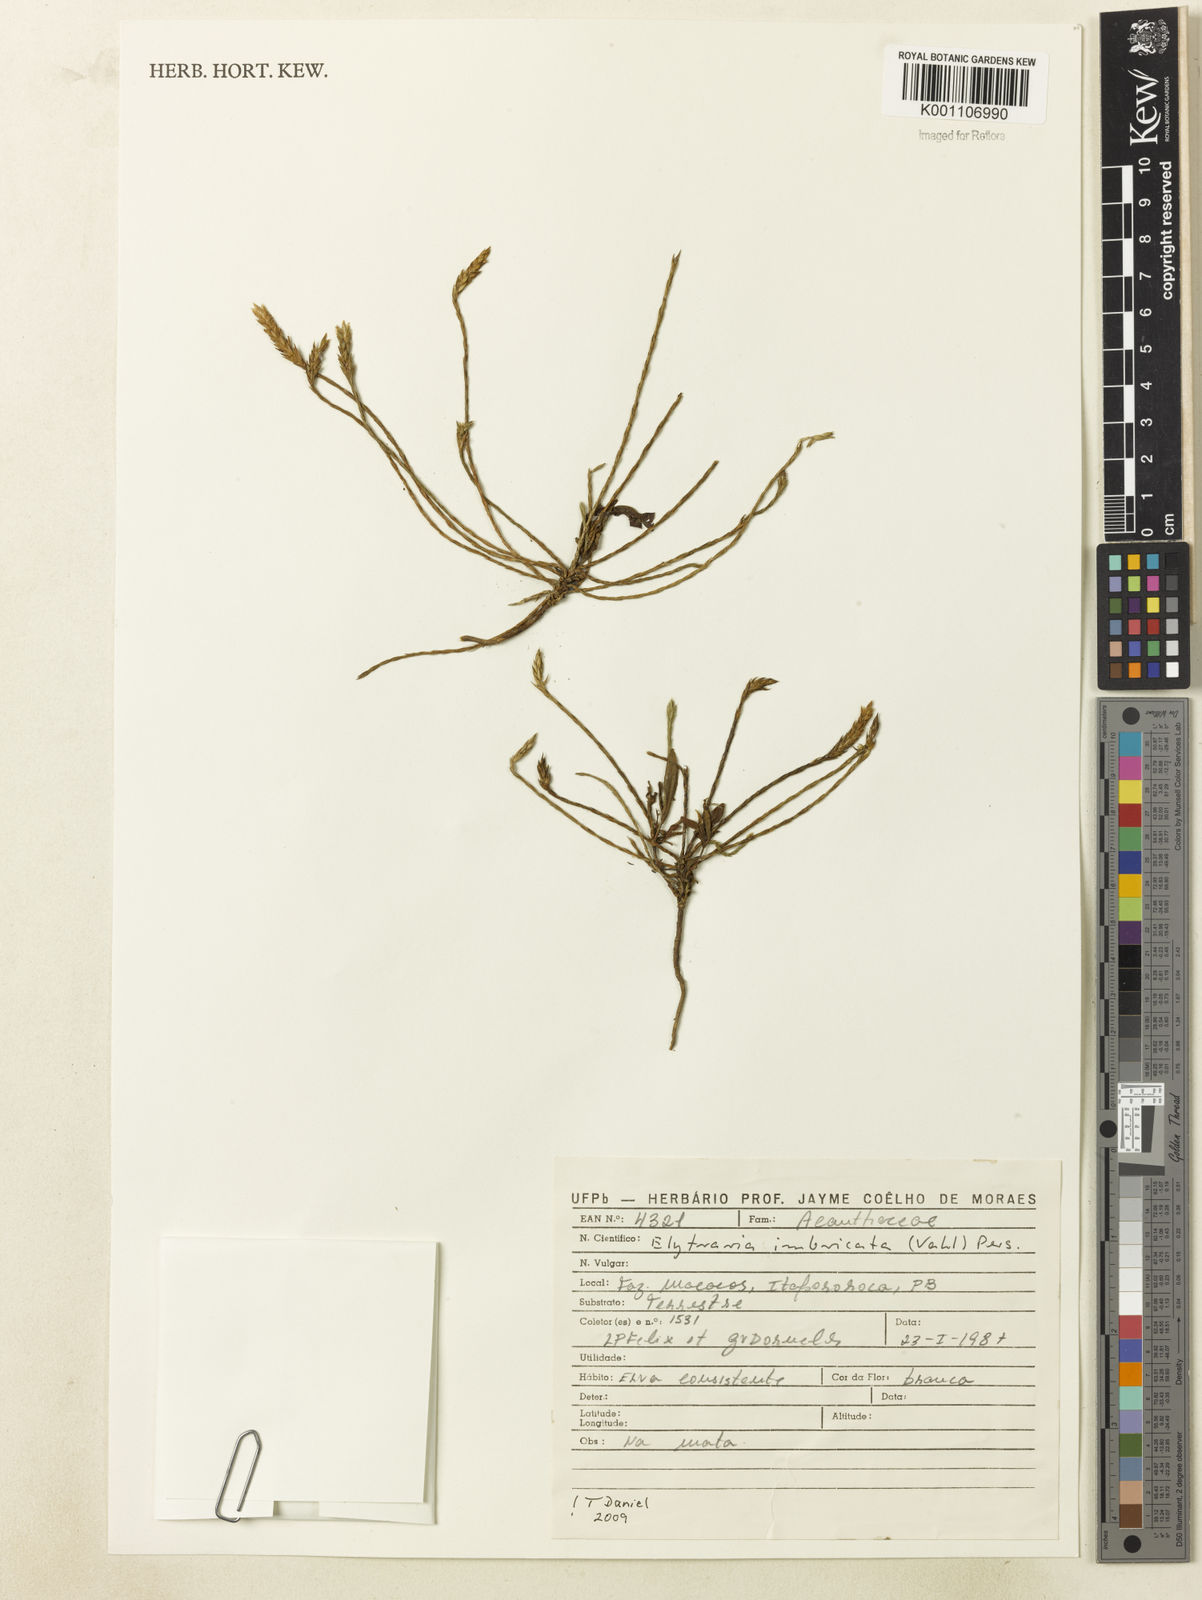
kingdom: Plantae
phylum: Tracheophyta
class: Magnoliopsida
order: Lamiales
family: Acanthaceae
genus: Elytraria
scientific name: Elytraria imbricata
